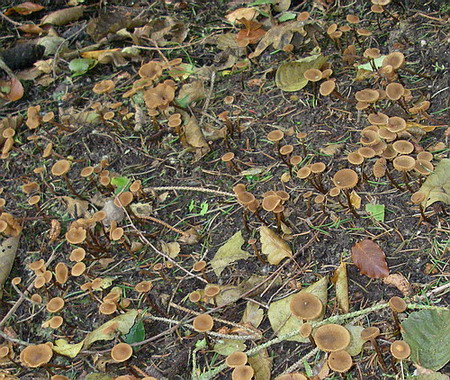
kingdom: Fungi
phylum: Basidiomycota
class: Agaricomycetes
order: Agaricales
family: Hymenogastraceae
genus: Naucoria
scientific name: Naucoria scolecina
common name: mørk elle-knaphat
